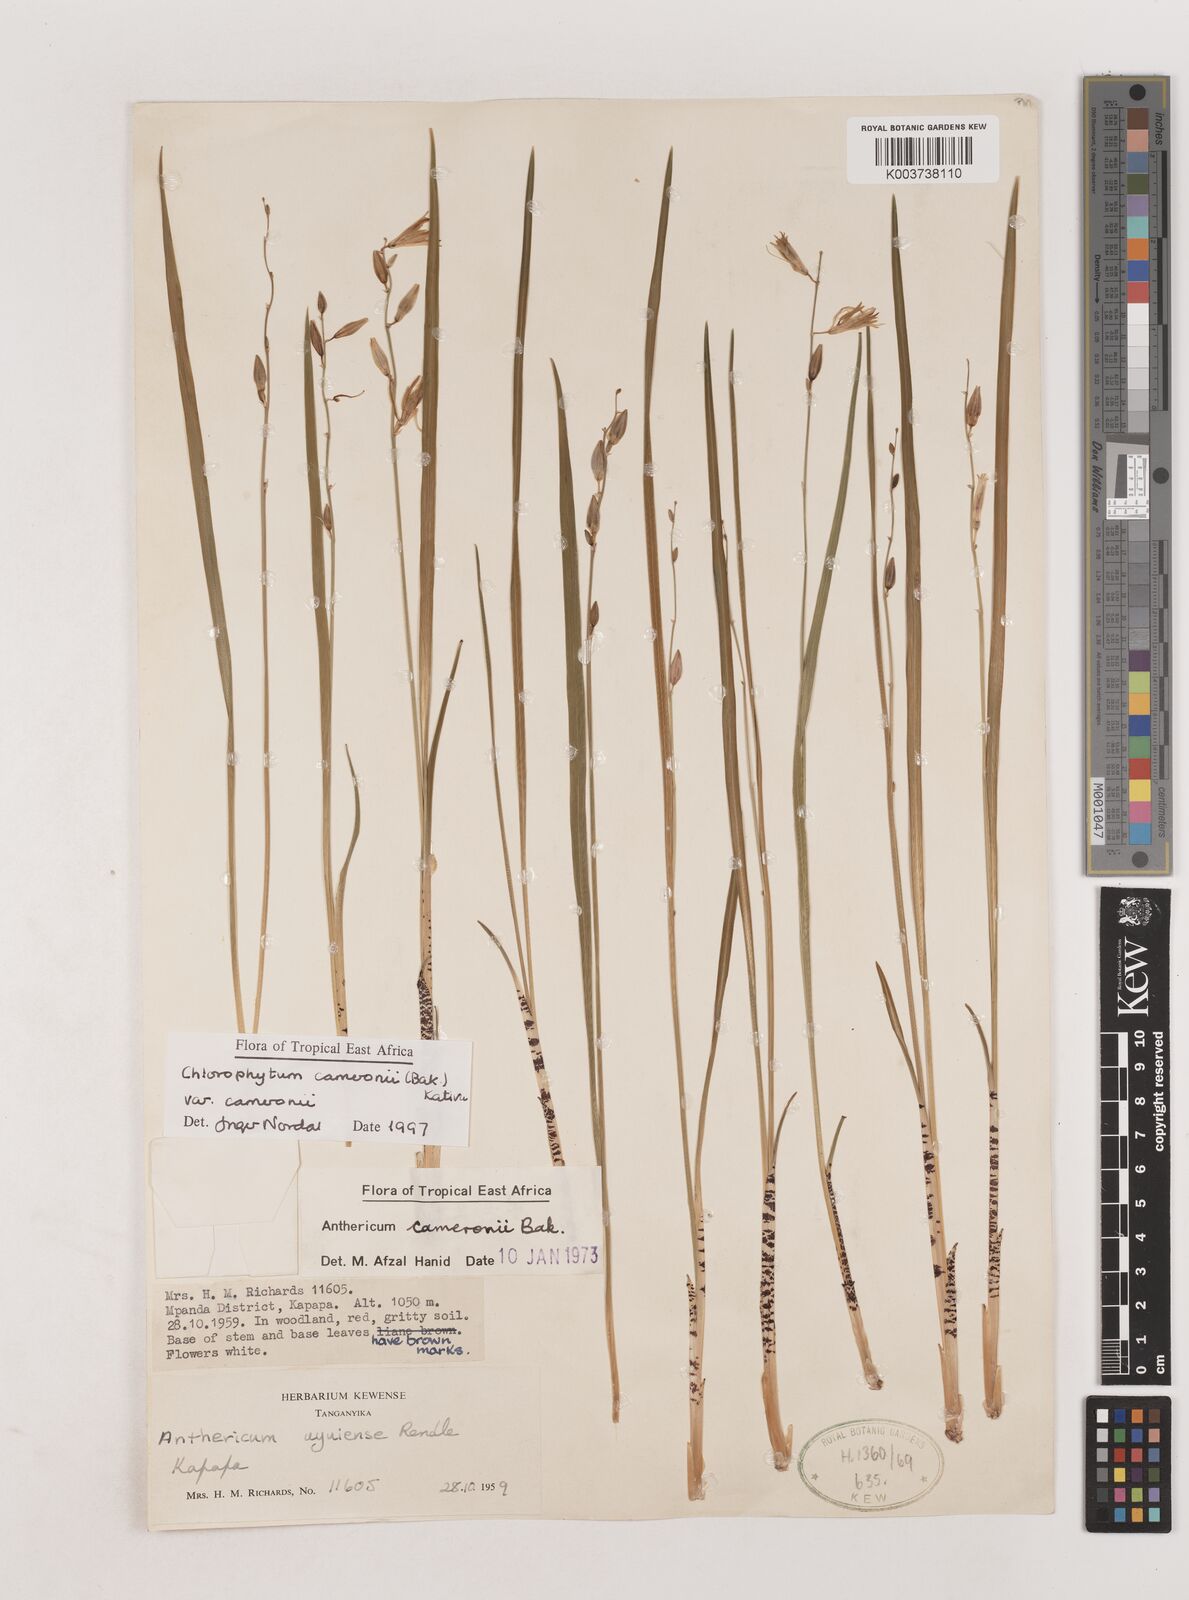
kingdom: Plantae
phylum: Tracheophyta
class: Liliopsida
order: Asparagales
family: Asparagaceae
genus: Chlorophytum
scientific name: Chlorophytum cameronii
